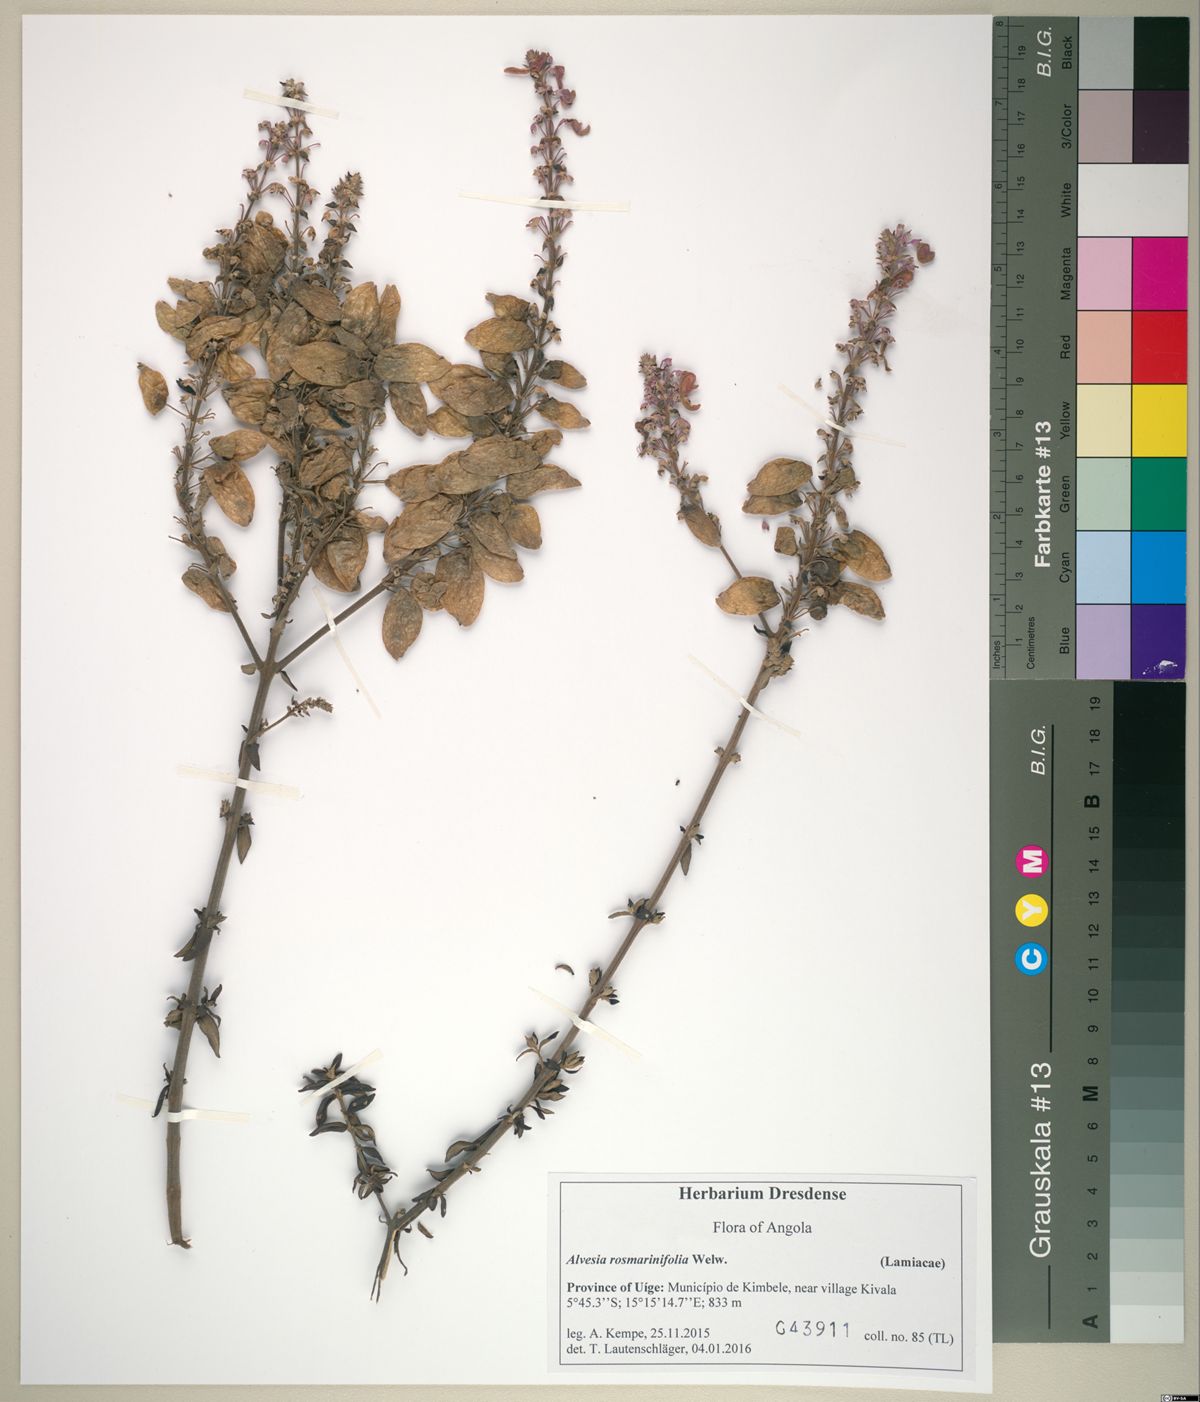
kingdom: Plantae
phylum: Tracheophyta
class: Magnoliopsida
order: Lamiales
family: Lamiaceae
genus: Alvesia
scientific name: Alvesia rosmarinifolia
